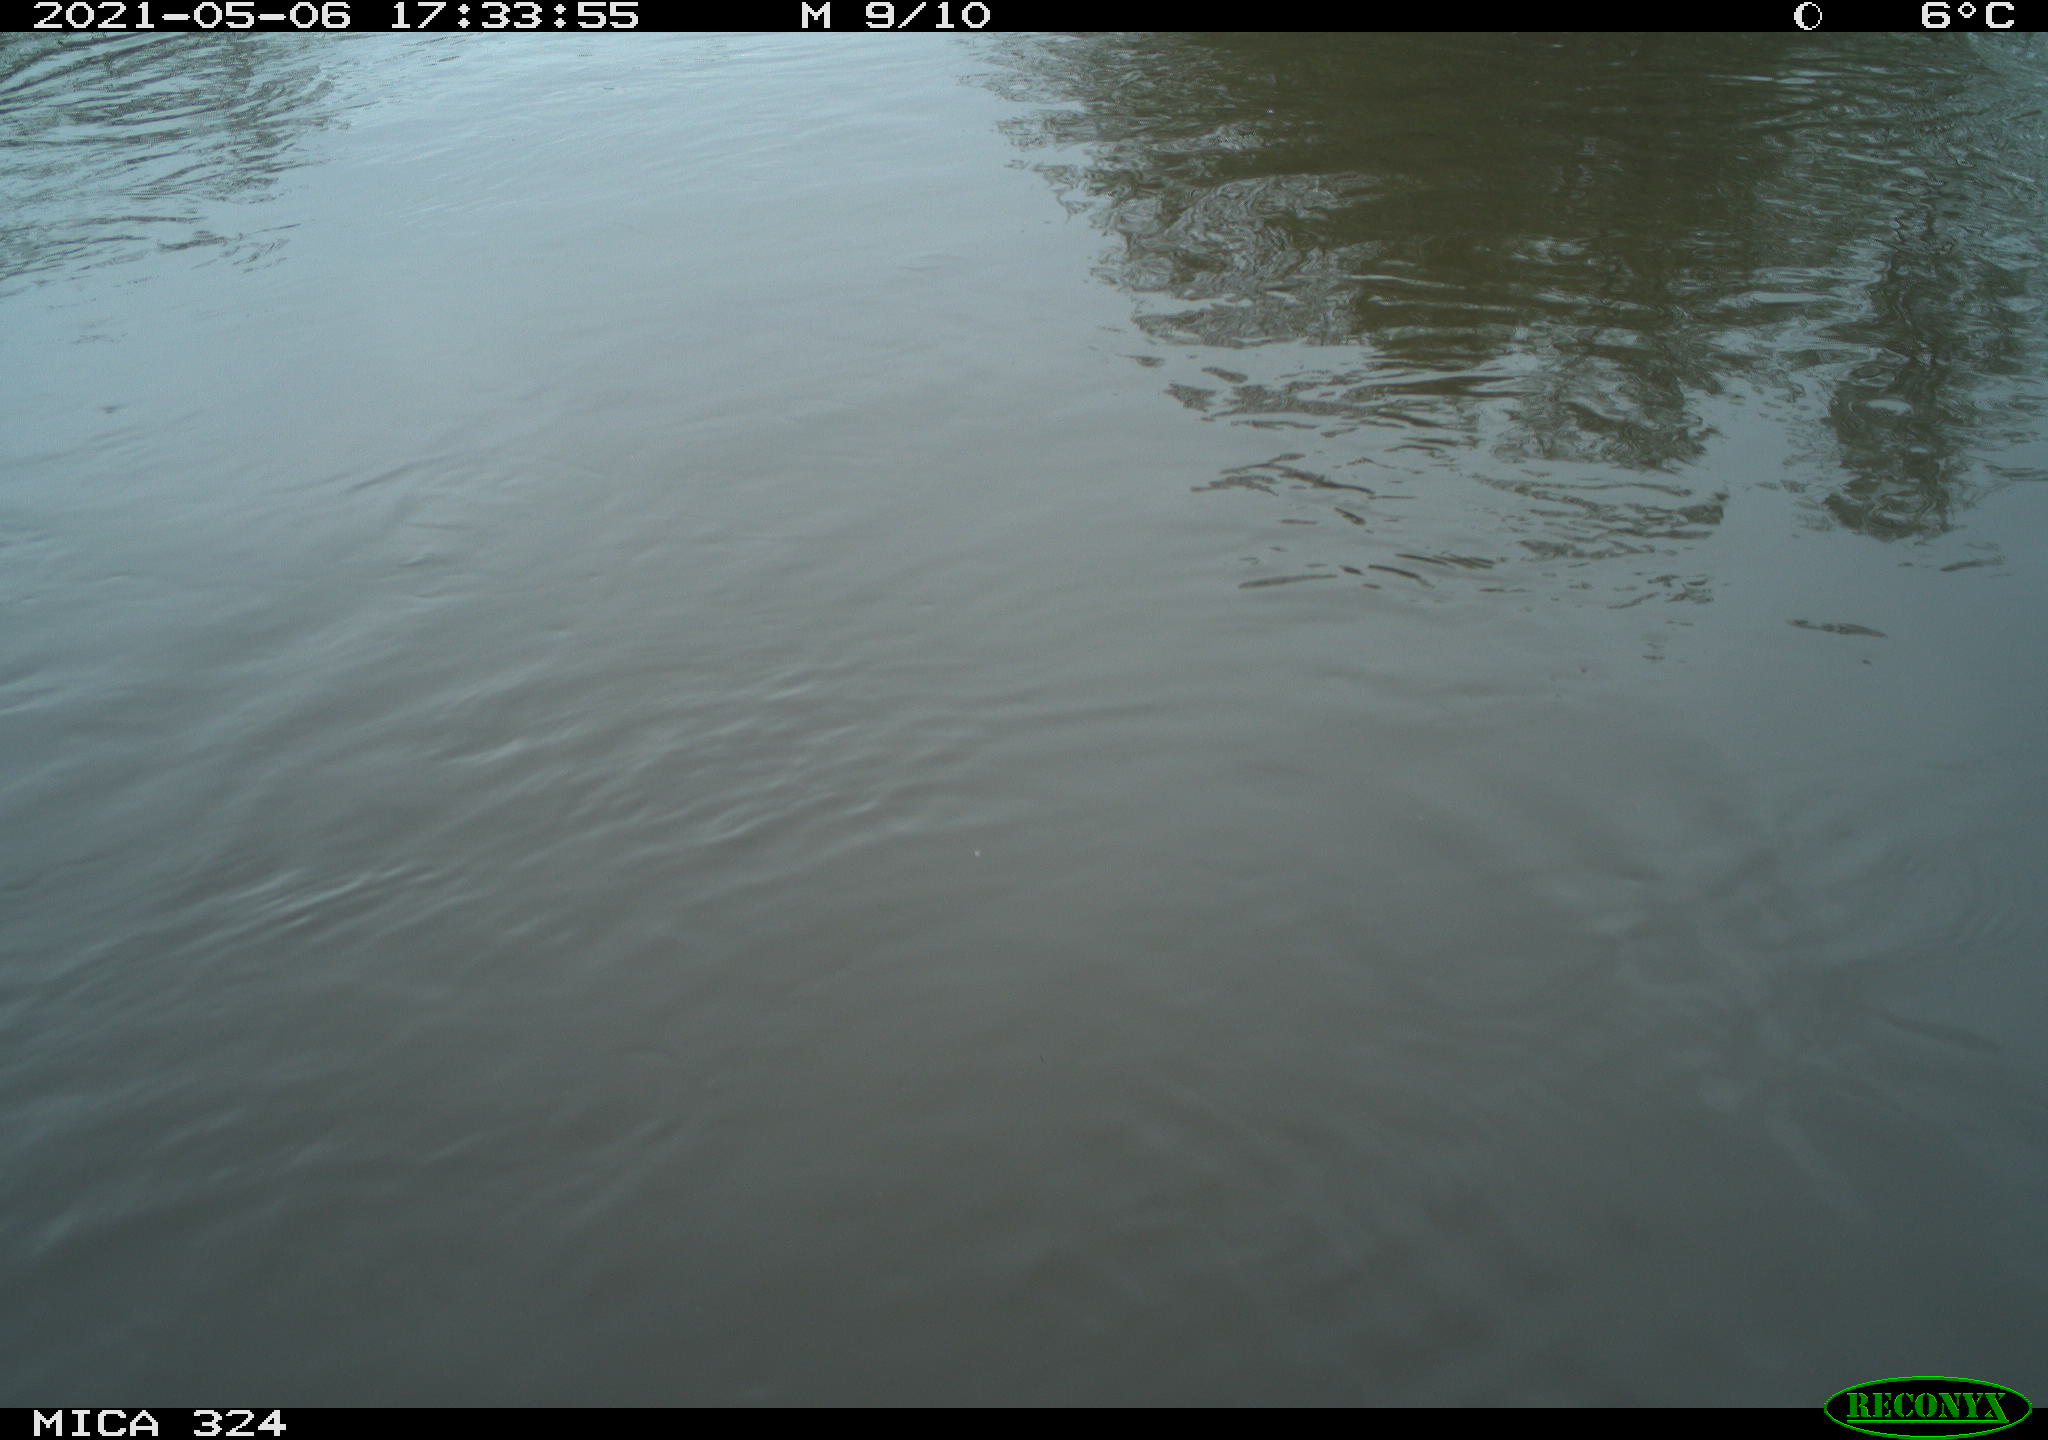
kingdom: Animalia
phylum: Chordata
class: Aves
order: Gruiformes
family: Rallidae
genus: Fulica
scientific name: Fulica atra
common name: Eurasian coot
